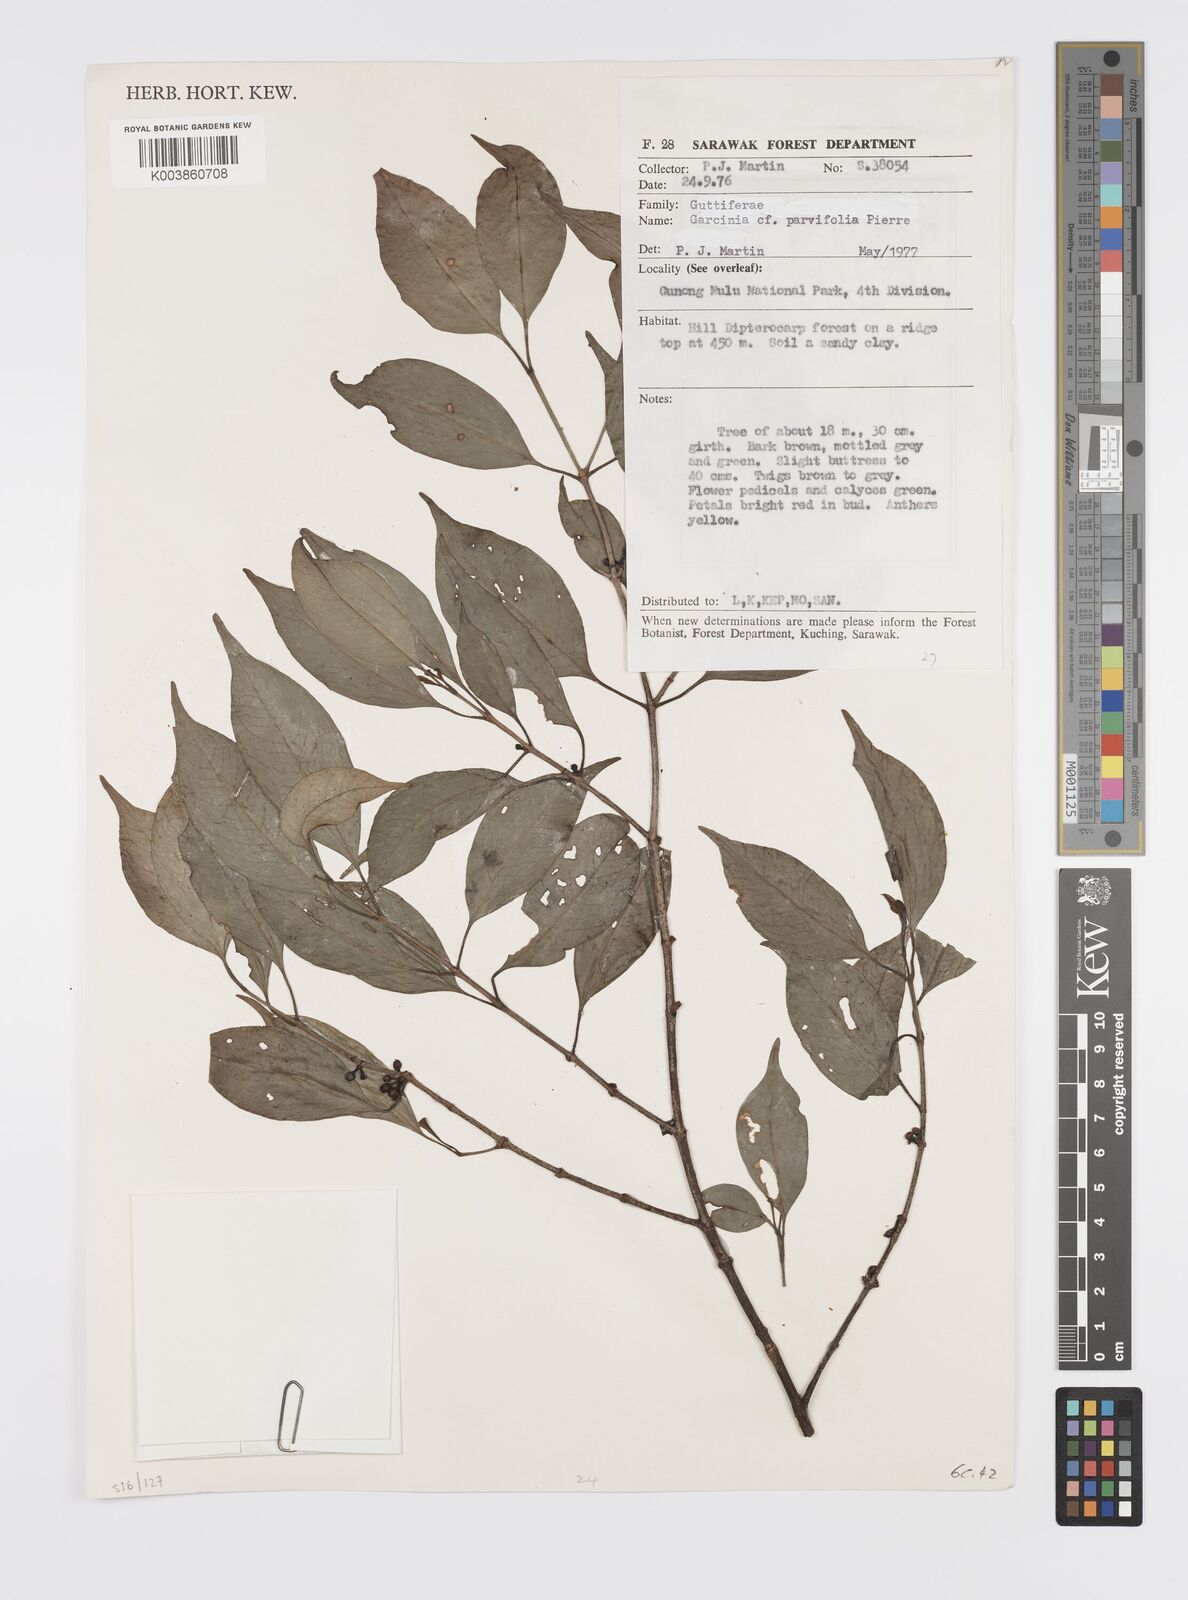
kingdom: Plantae
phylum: Tracheophyta
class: Magnoliopsida
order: Malpighiales
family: Clusiaceae
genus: Garcinia
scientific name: Garcinia parvifolia
